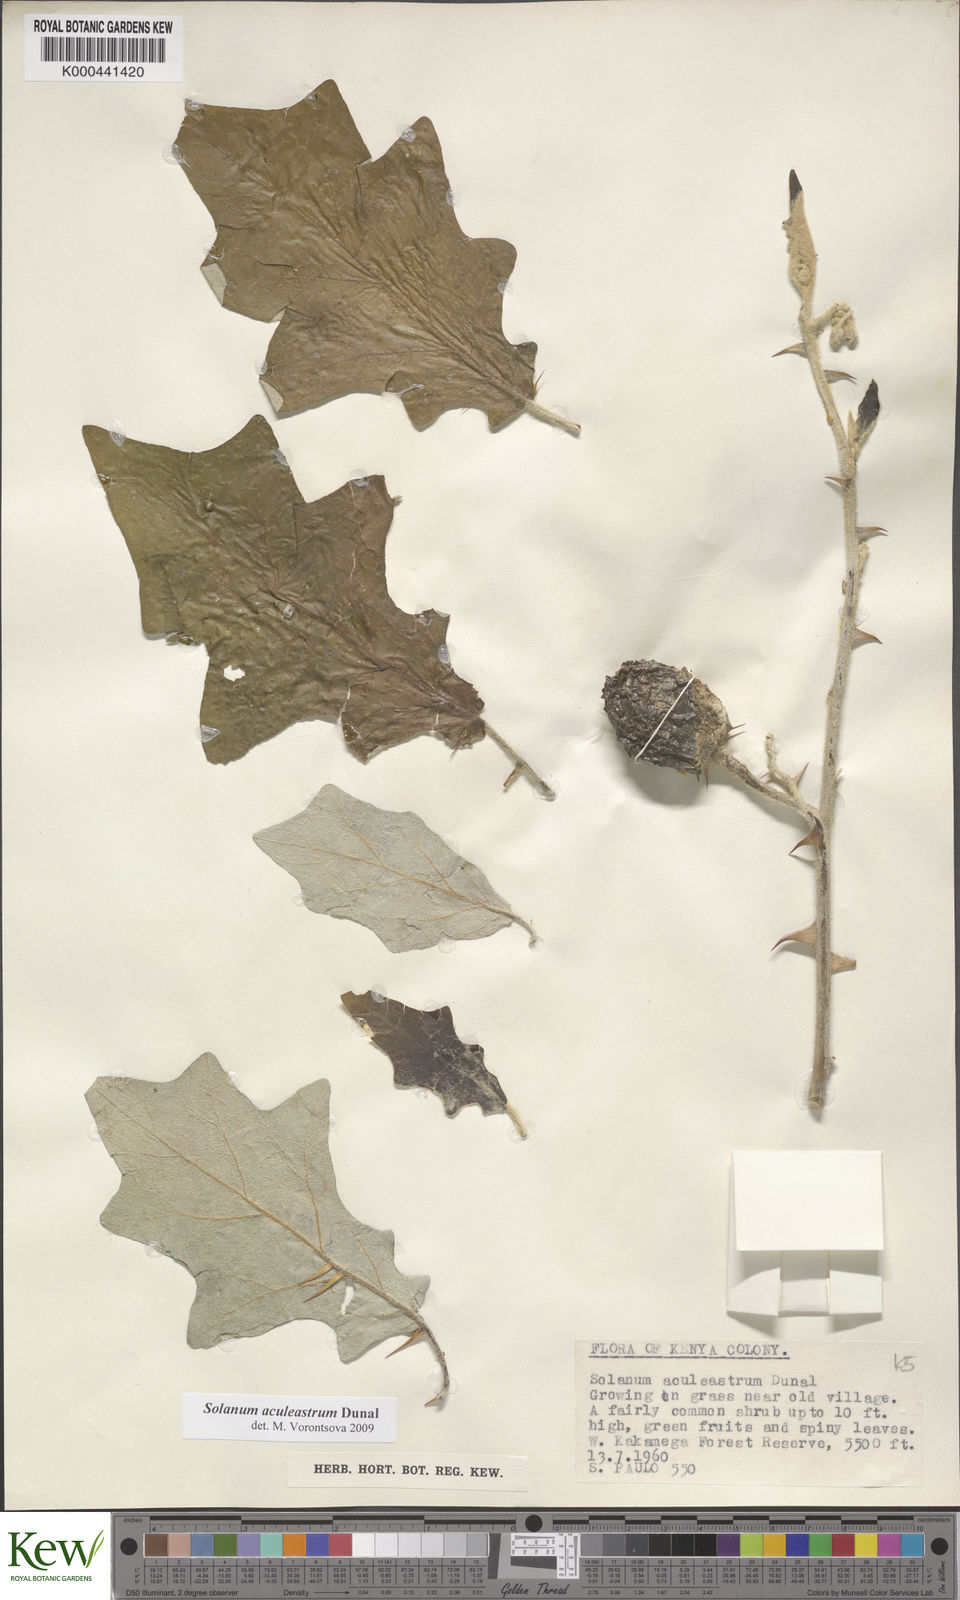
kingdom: Plantae
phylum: Tracheophyta
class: Magnoliopsida
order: Solanales
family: Solanaceae
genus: Solanum
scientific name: Solanum aculeastrum
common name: Goat bitter-apple
